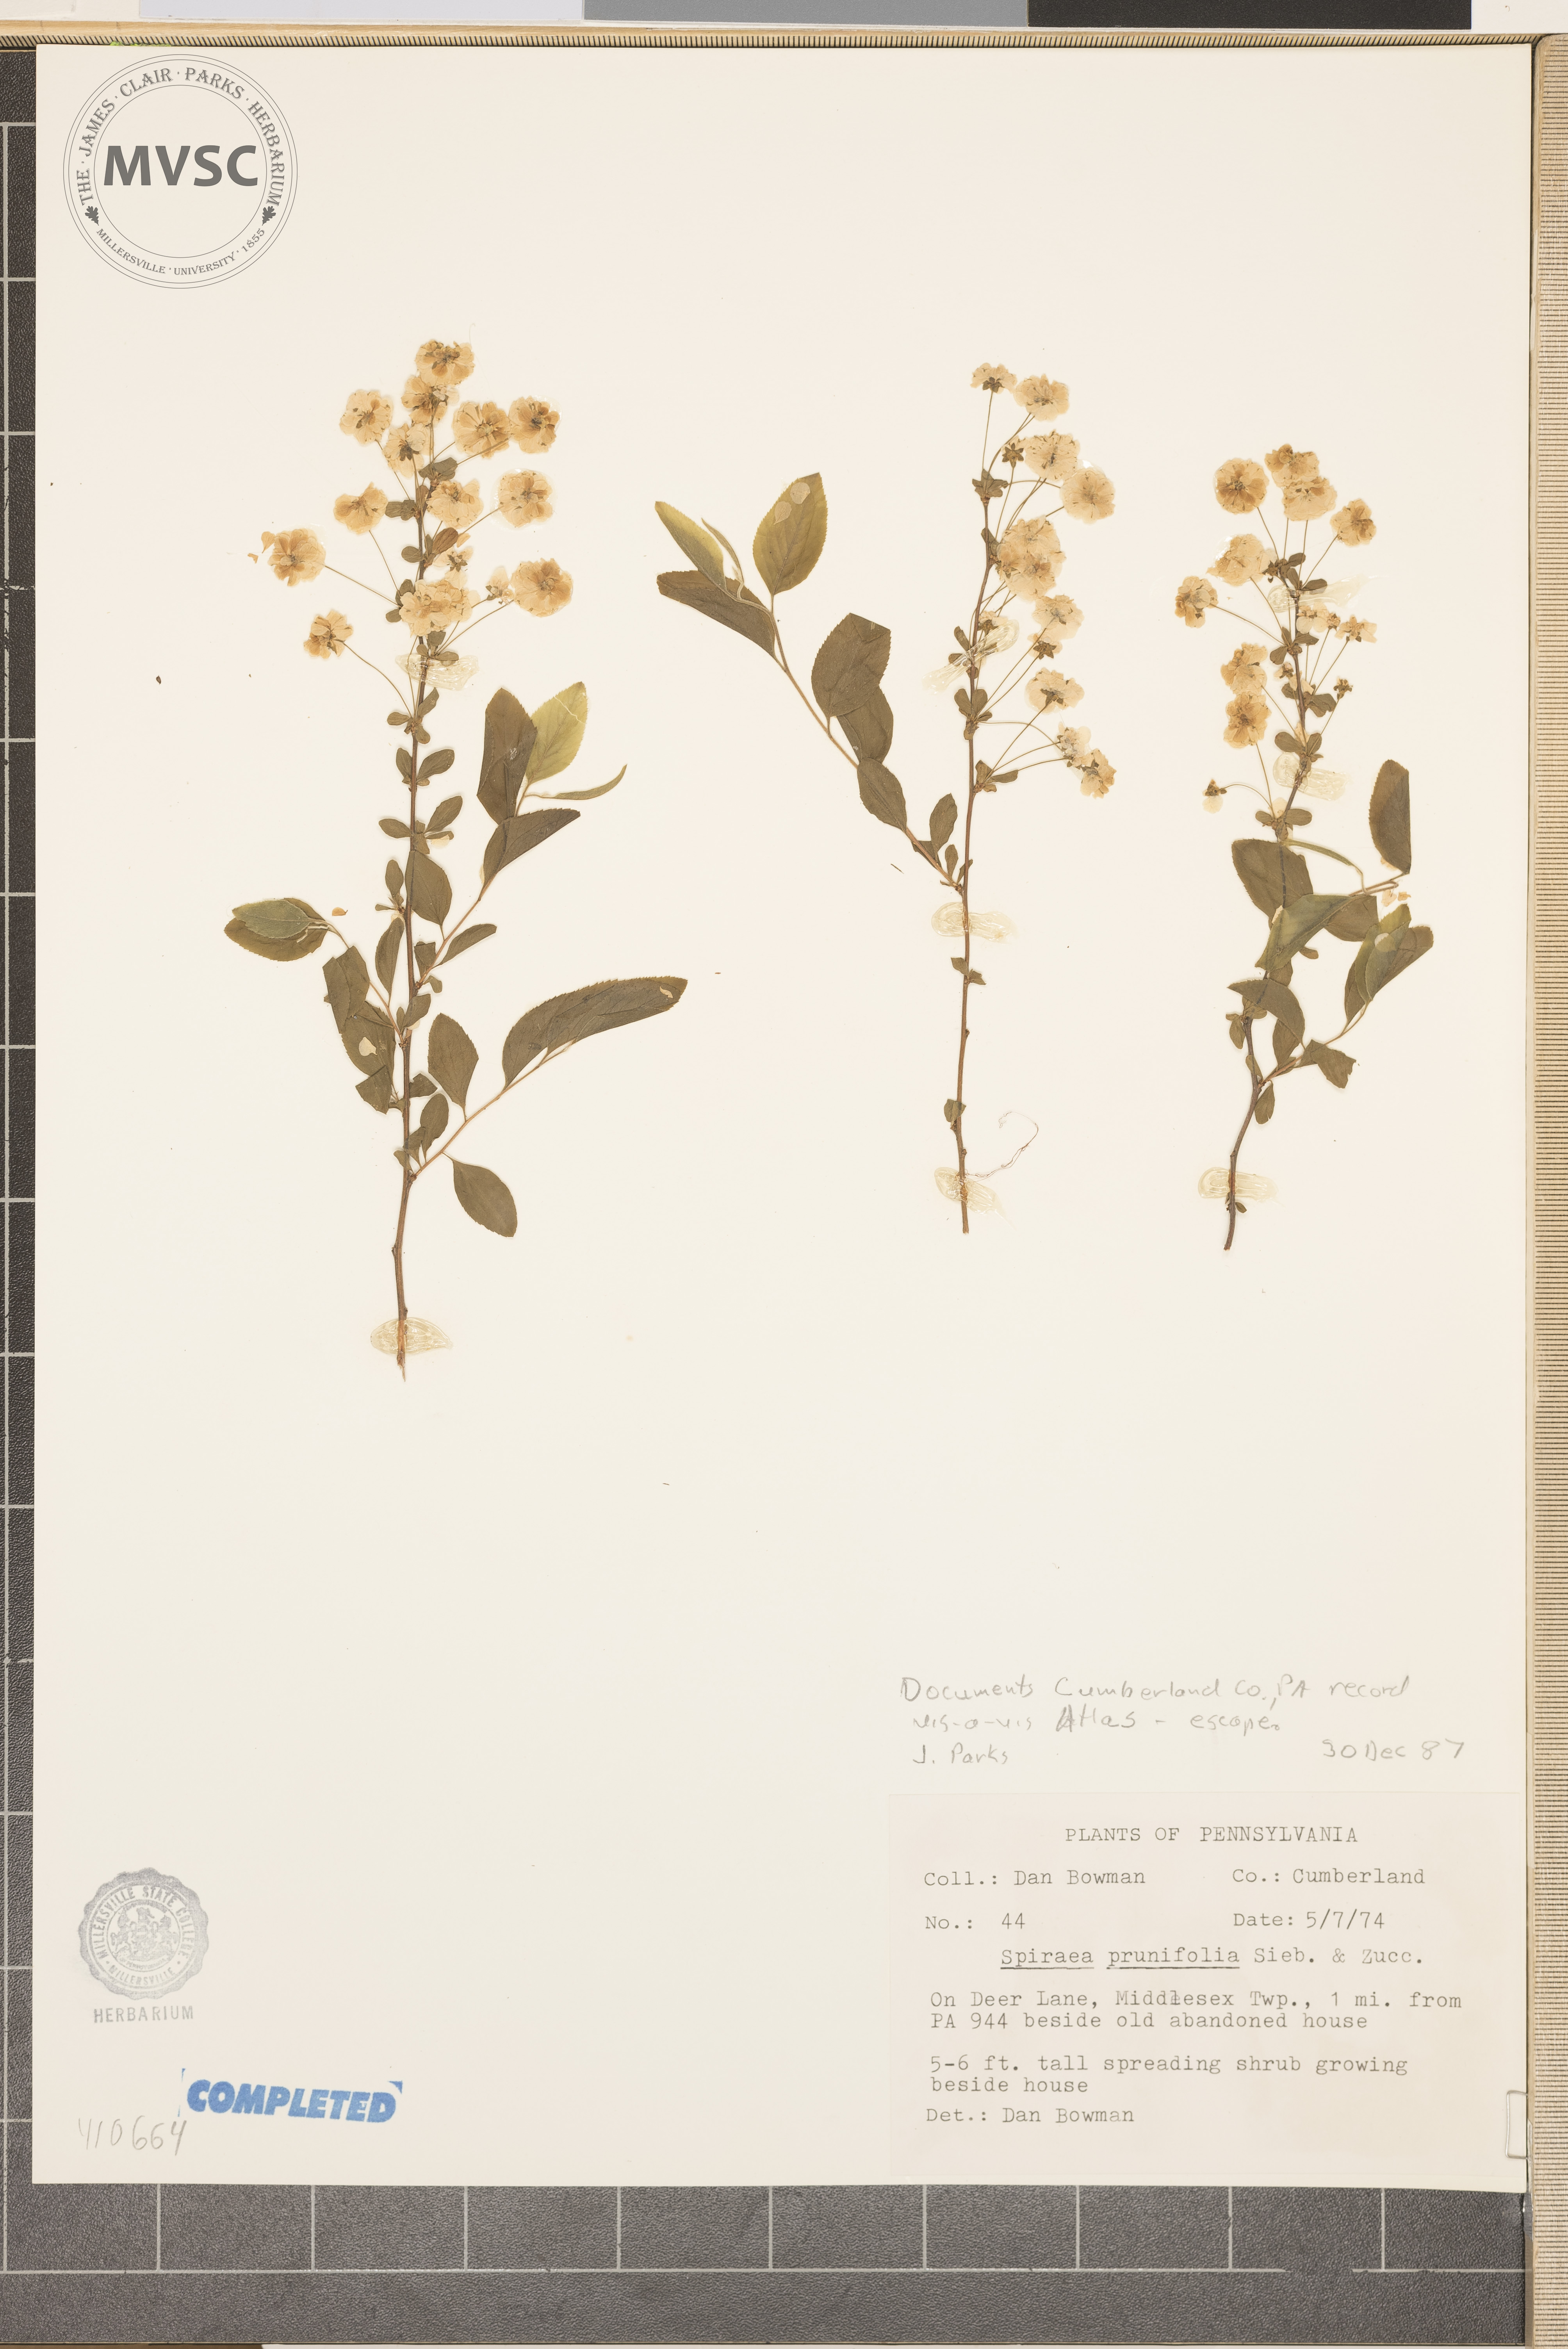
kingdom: Plantae
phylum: Tracheophyta
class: Magnoliopsida
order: Rosales
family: Rosaceae
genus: Spiraea
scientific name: Spiraea prunifolia
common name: Bridal-wreath spiraea
